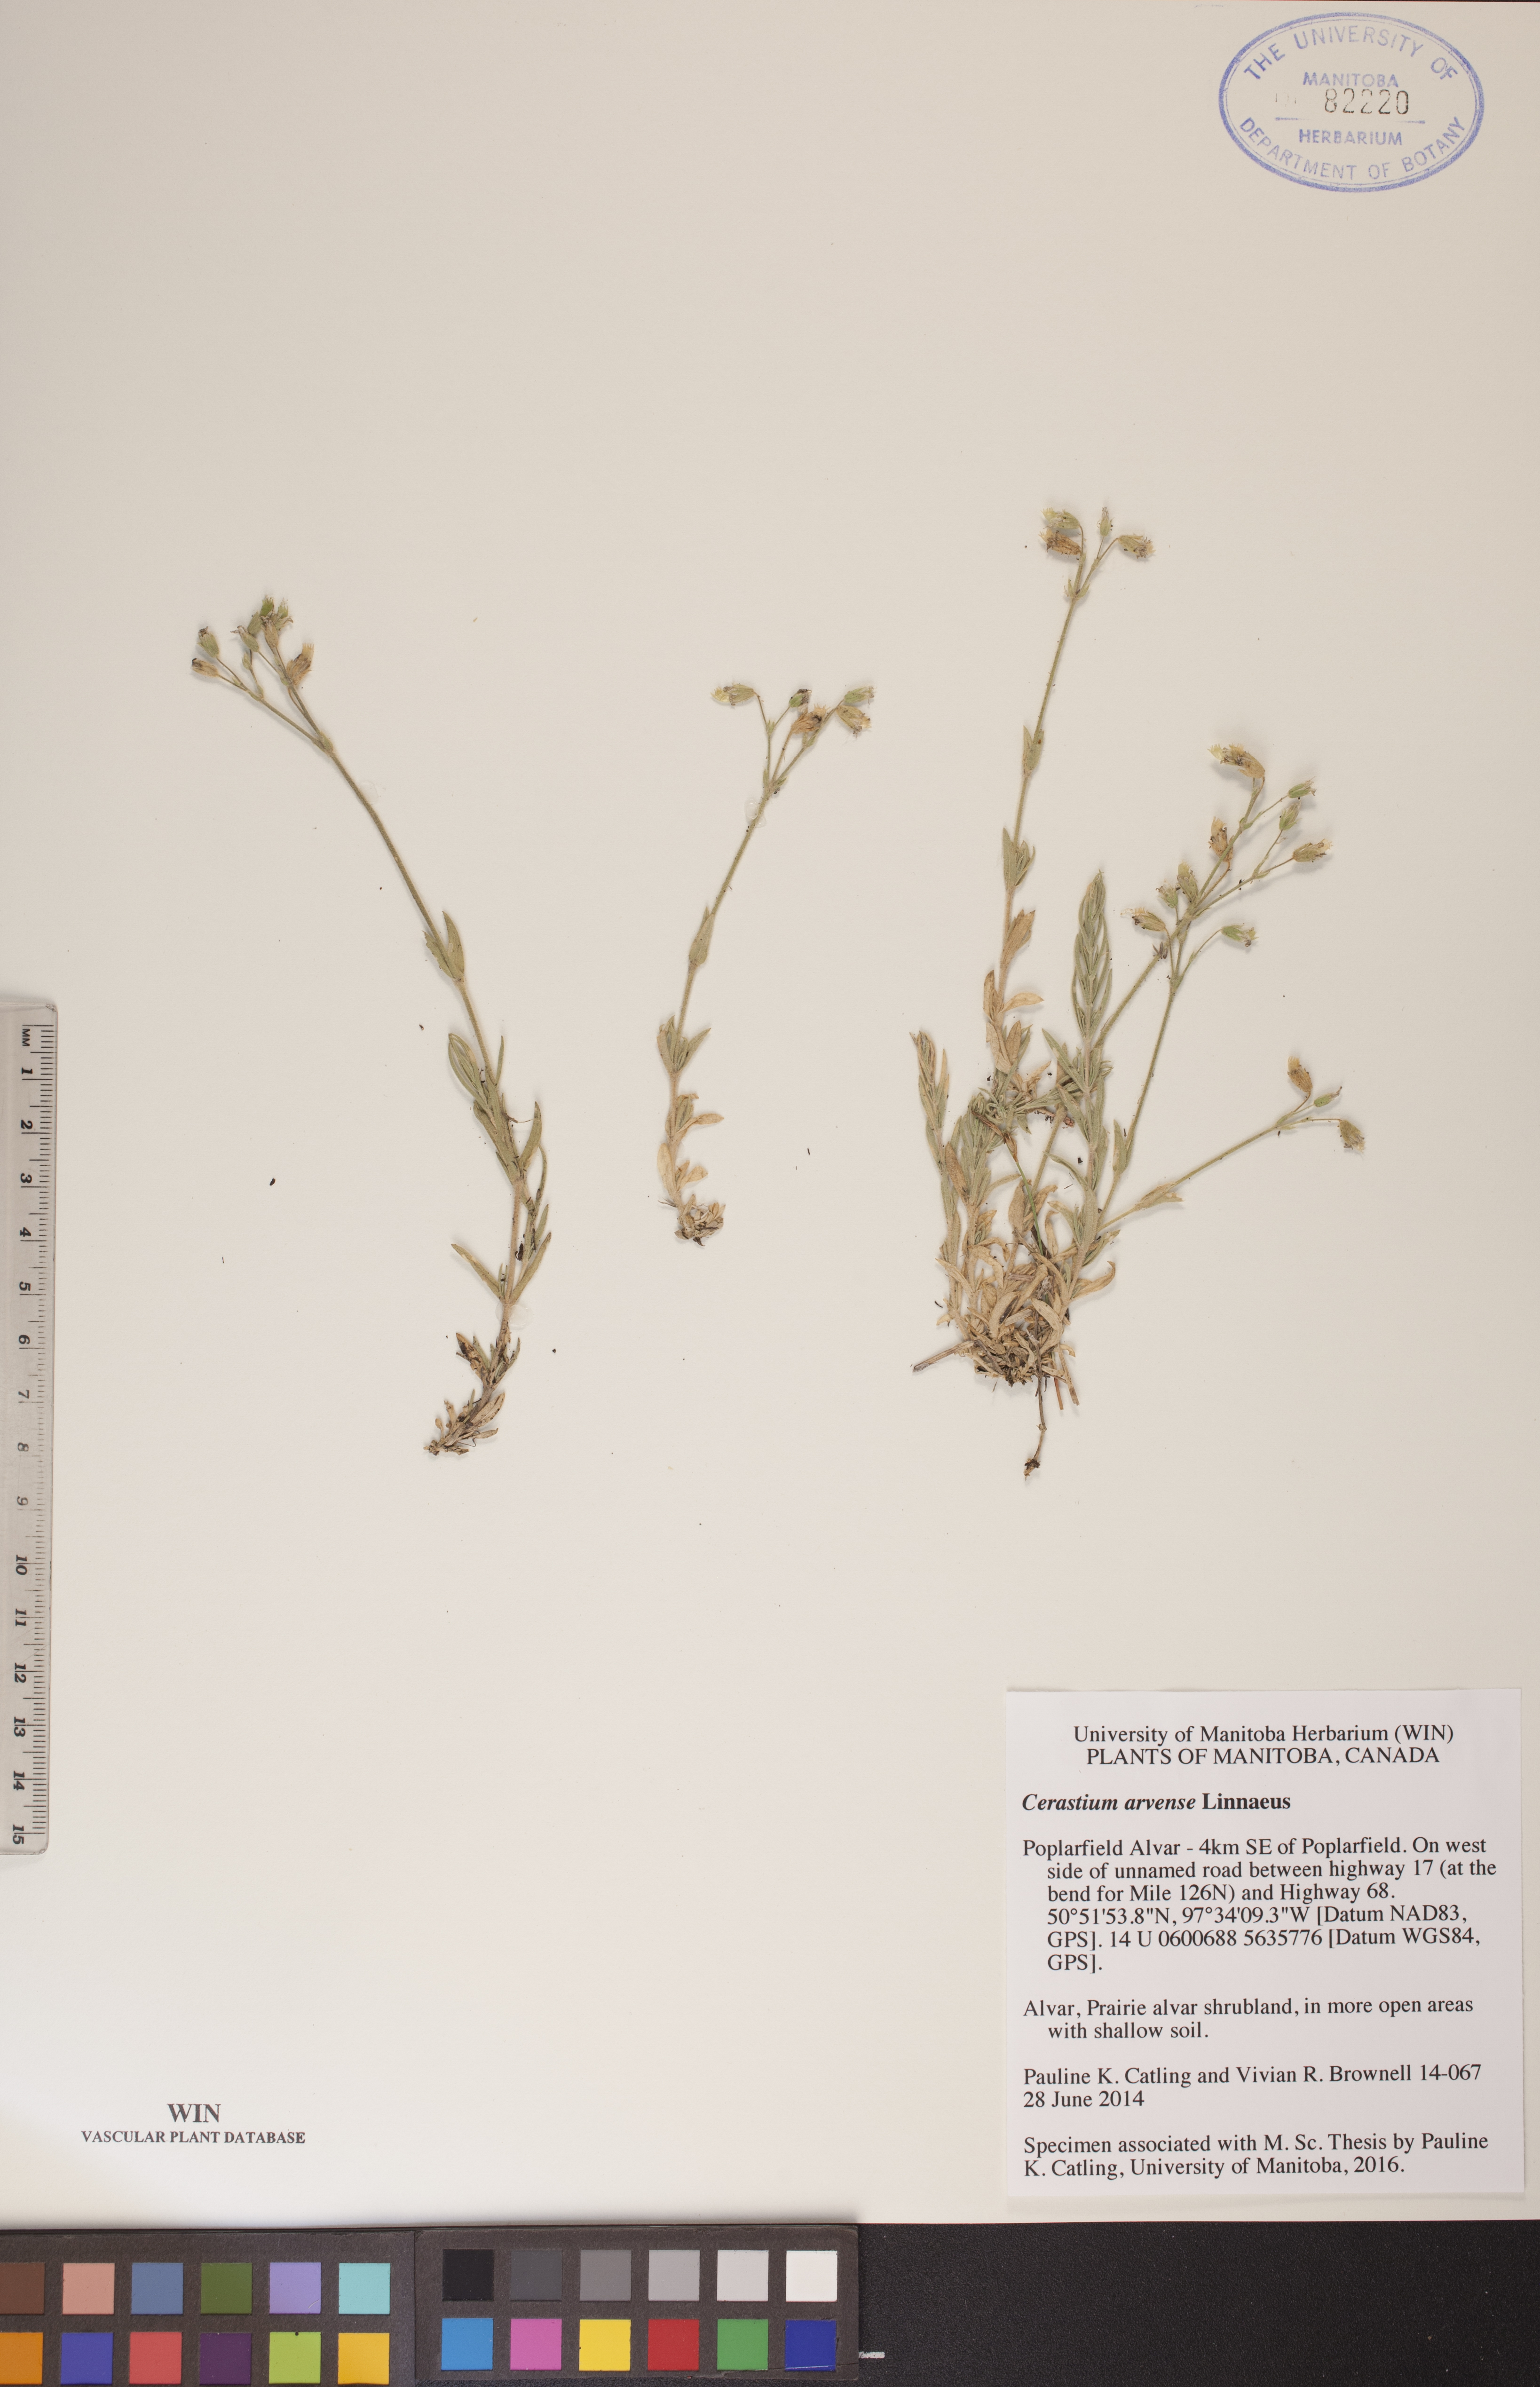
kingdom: Plantae
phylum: Tracheophyta
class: Magnoliopsida
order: Caryophyllales
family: Caryophyllaceae
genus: Cerastium
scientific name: Cerastium arvense
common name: Field mouse-ear
